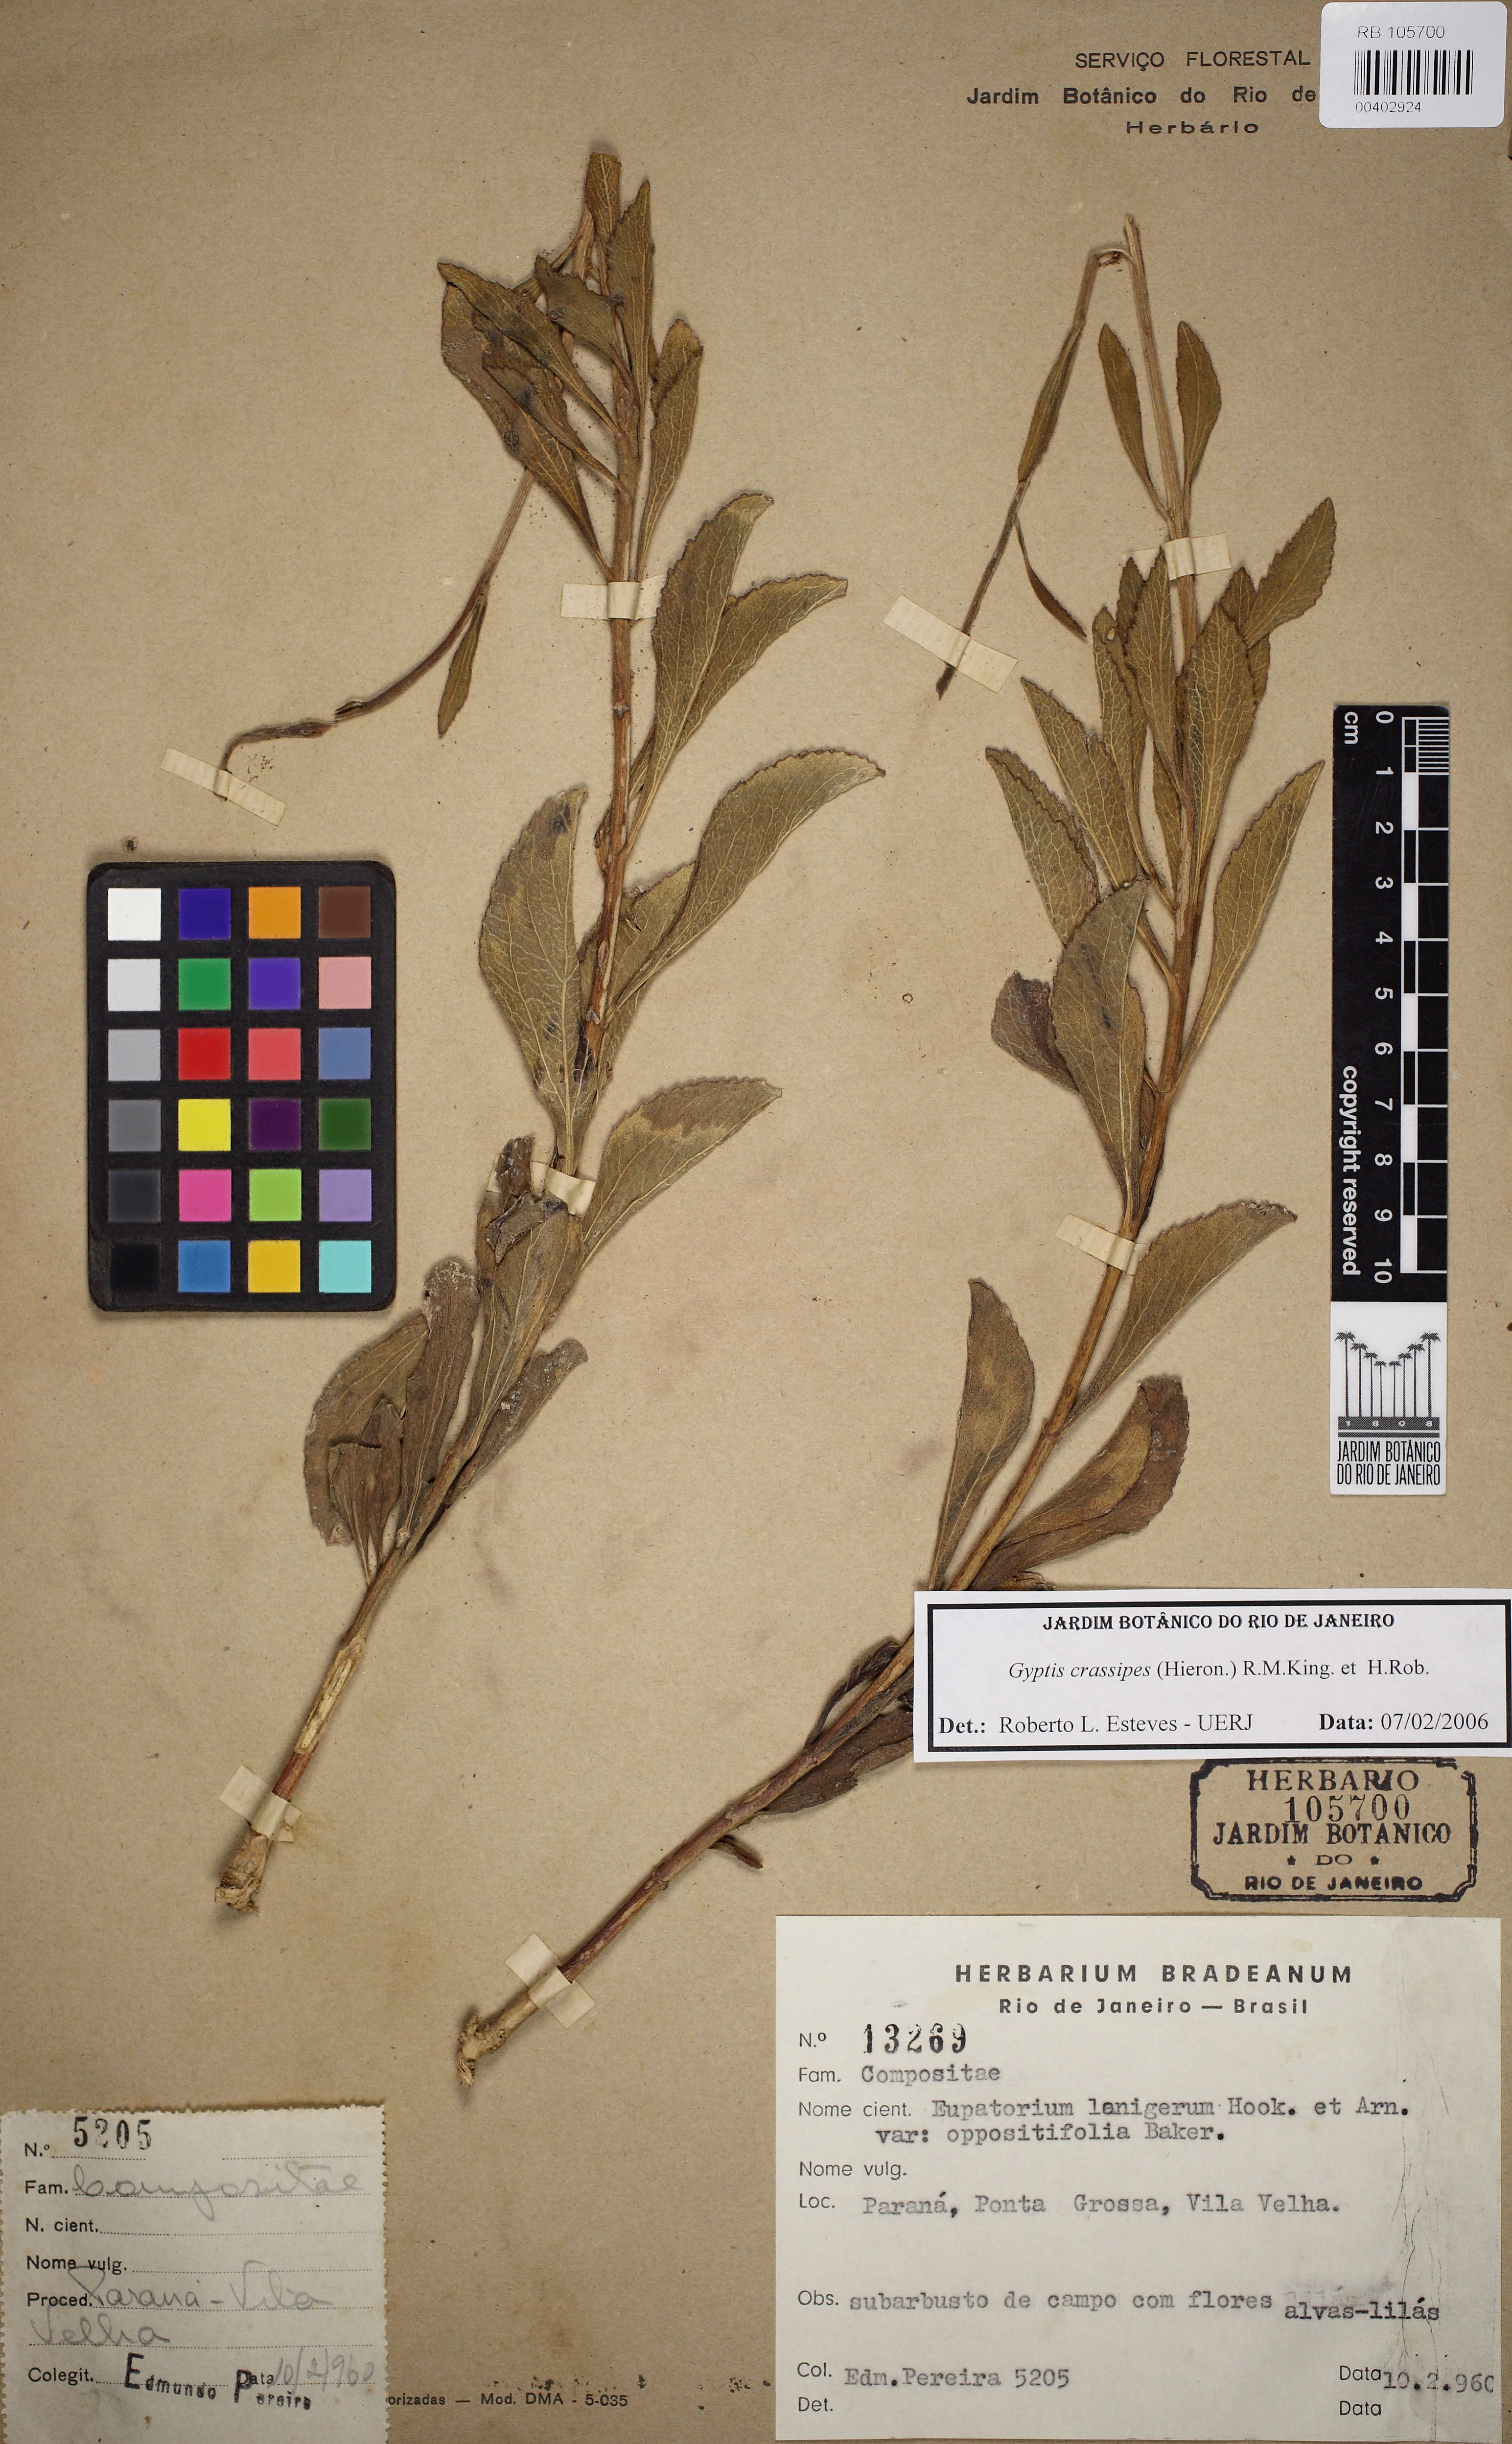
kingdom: Plantae
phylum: Tracheophyta
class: Magnoliopsida
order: Asterales
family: Asteraceae
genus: Gyptis
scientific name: Gyptis crassipes
